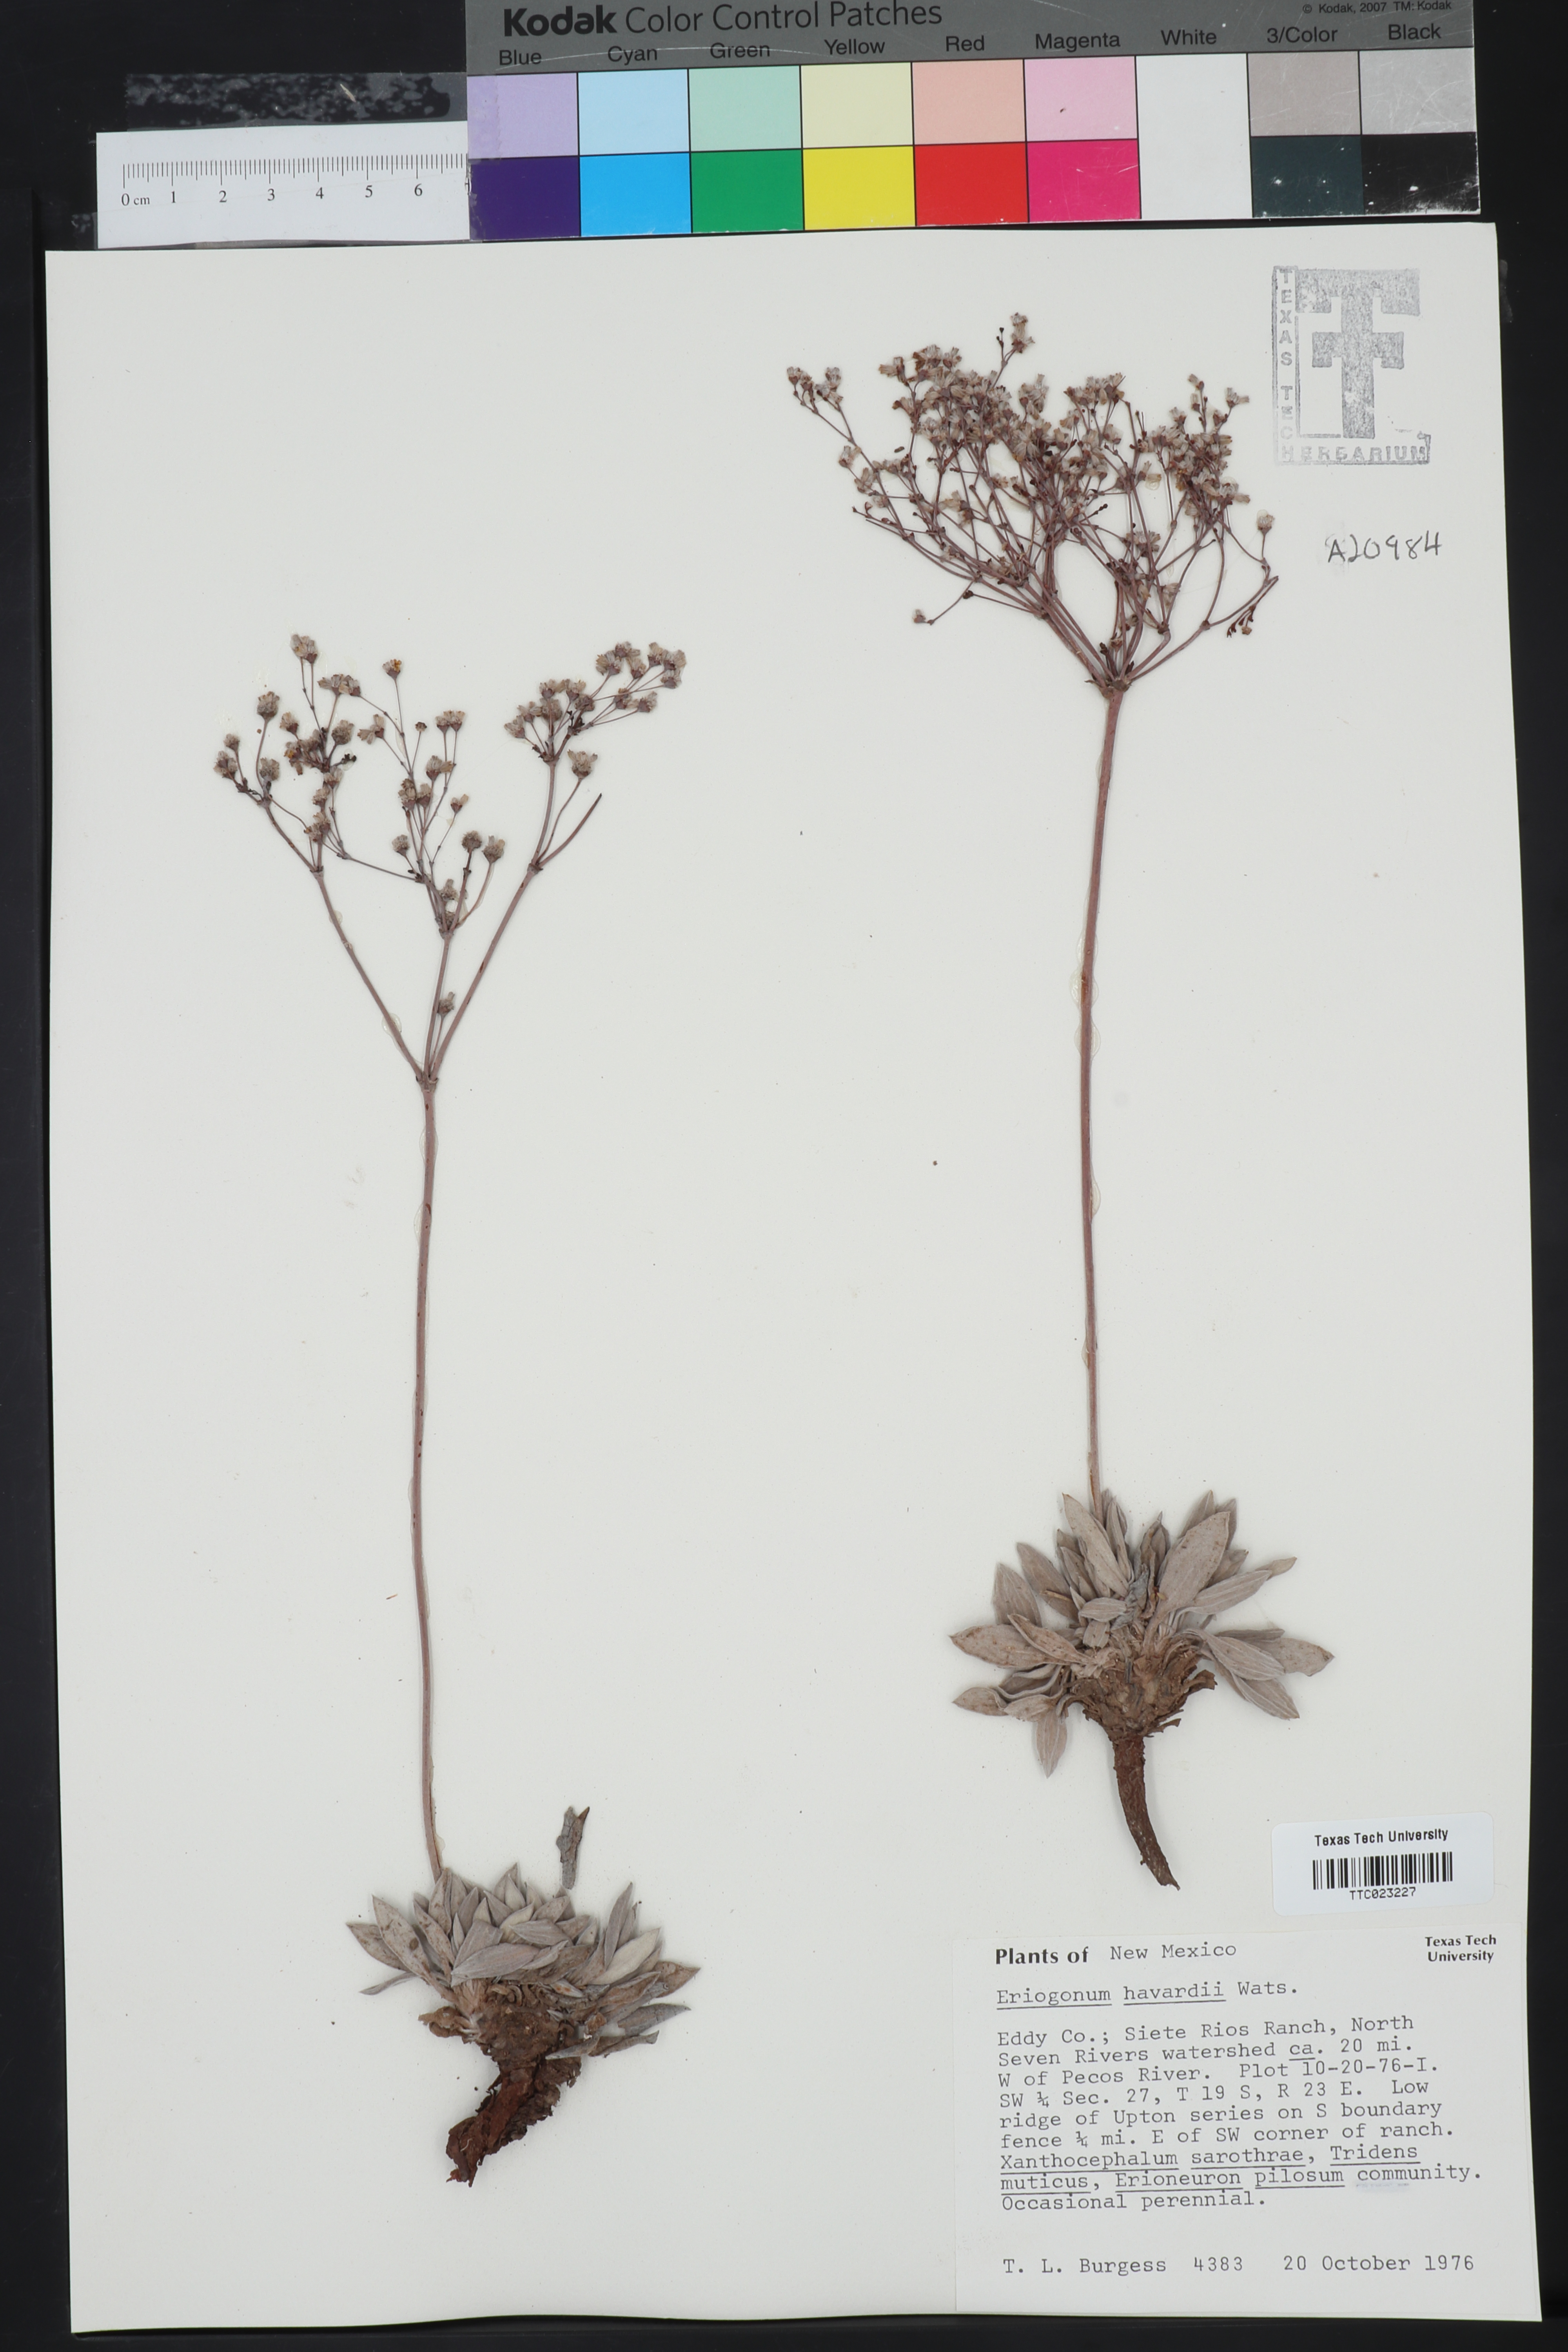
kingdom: Plantae
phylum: Tracheophyta
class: Magnoliopsida
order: Caryophyllales
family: Polygonaceae
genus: Eriogonum
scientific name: Eriogonum havardii
